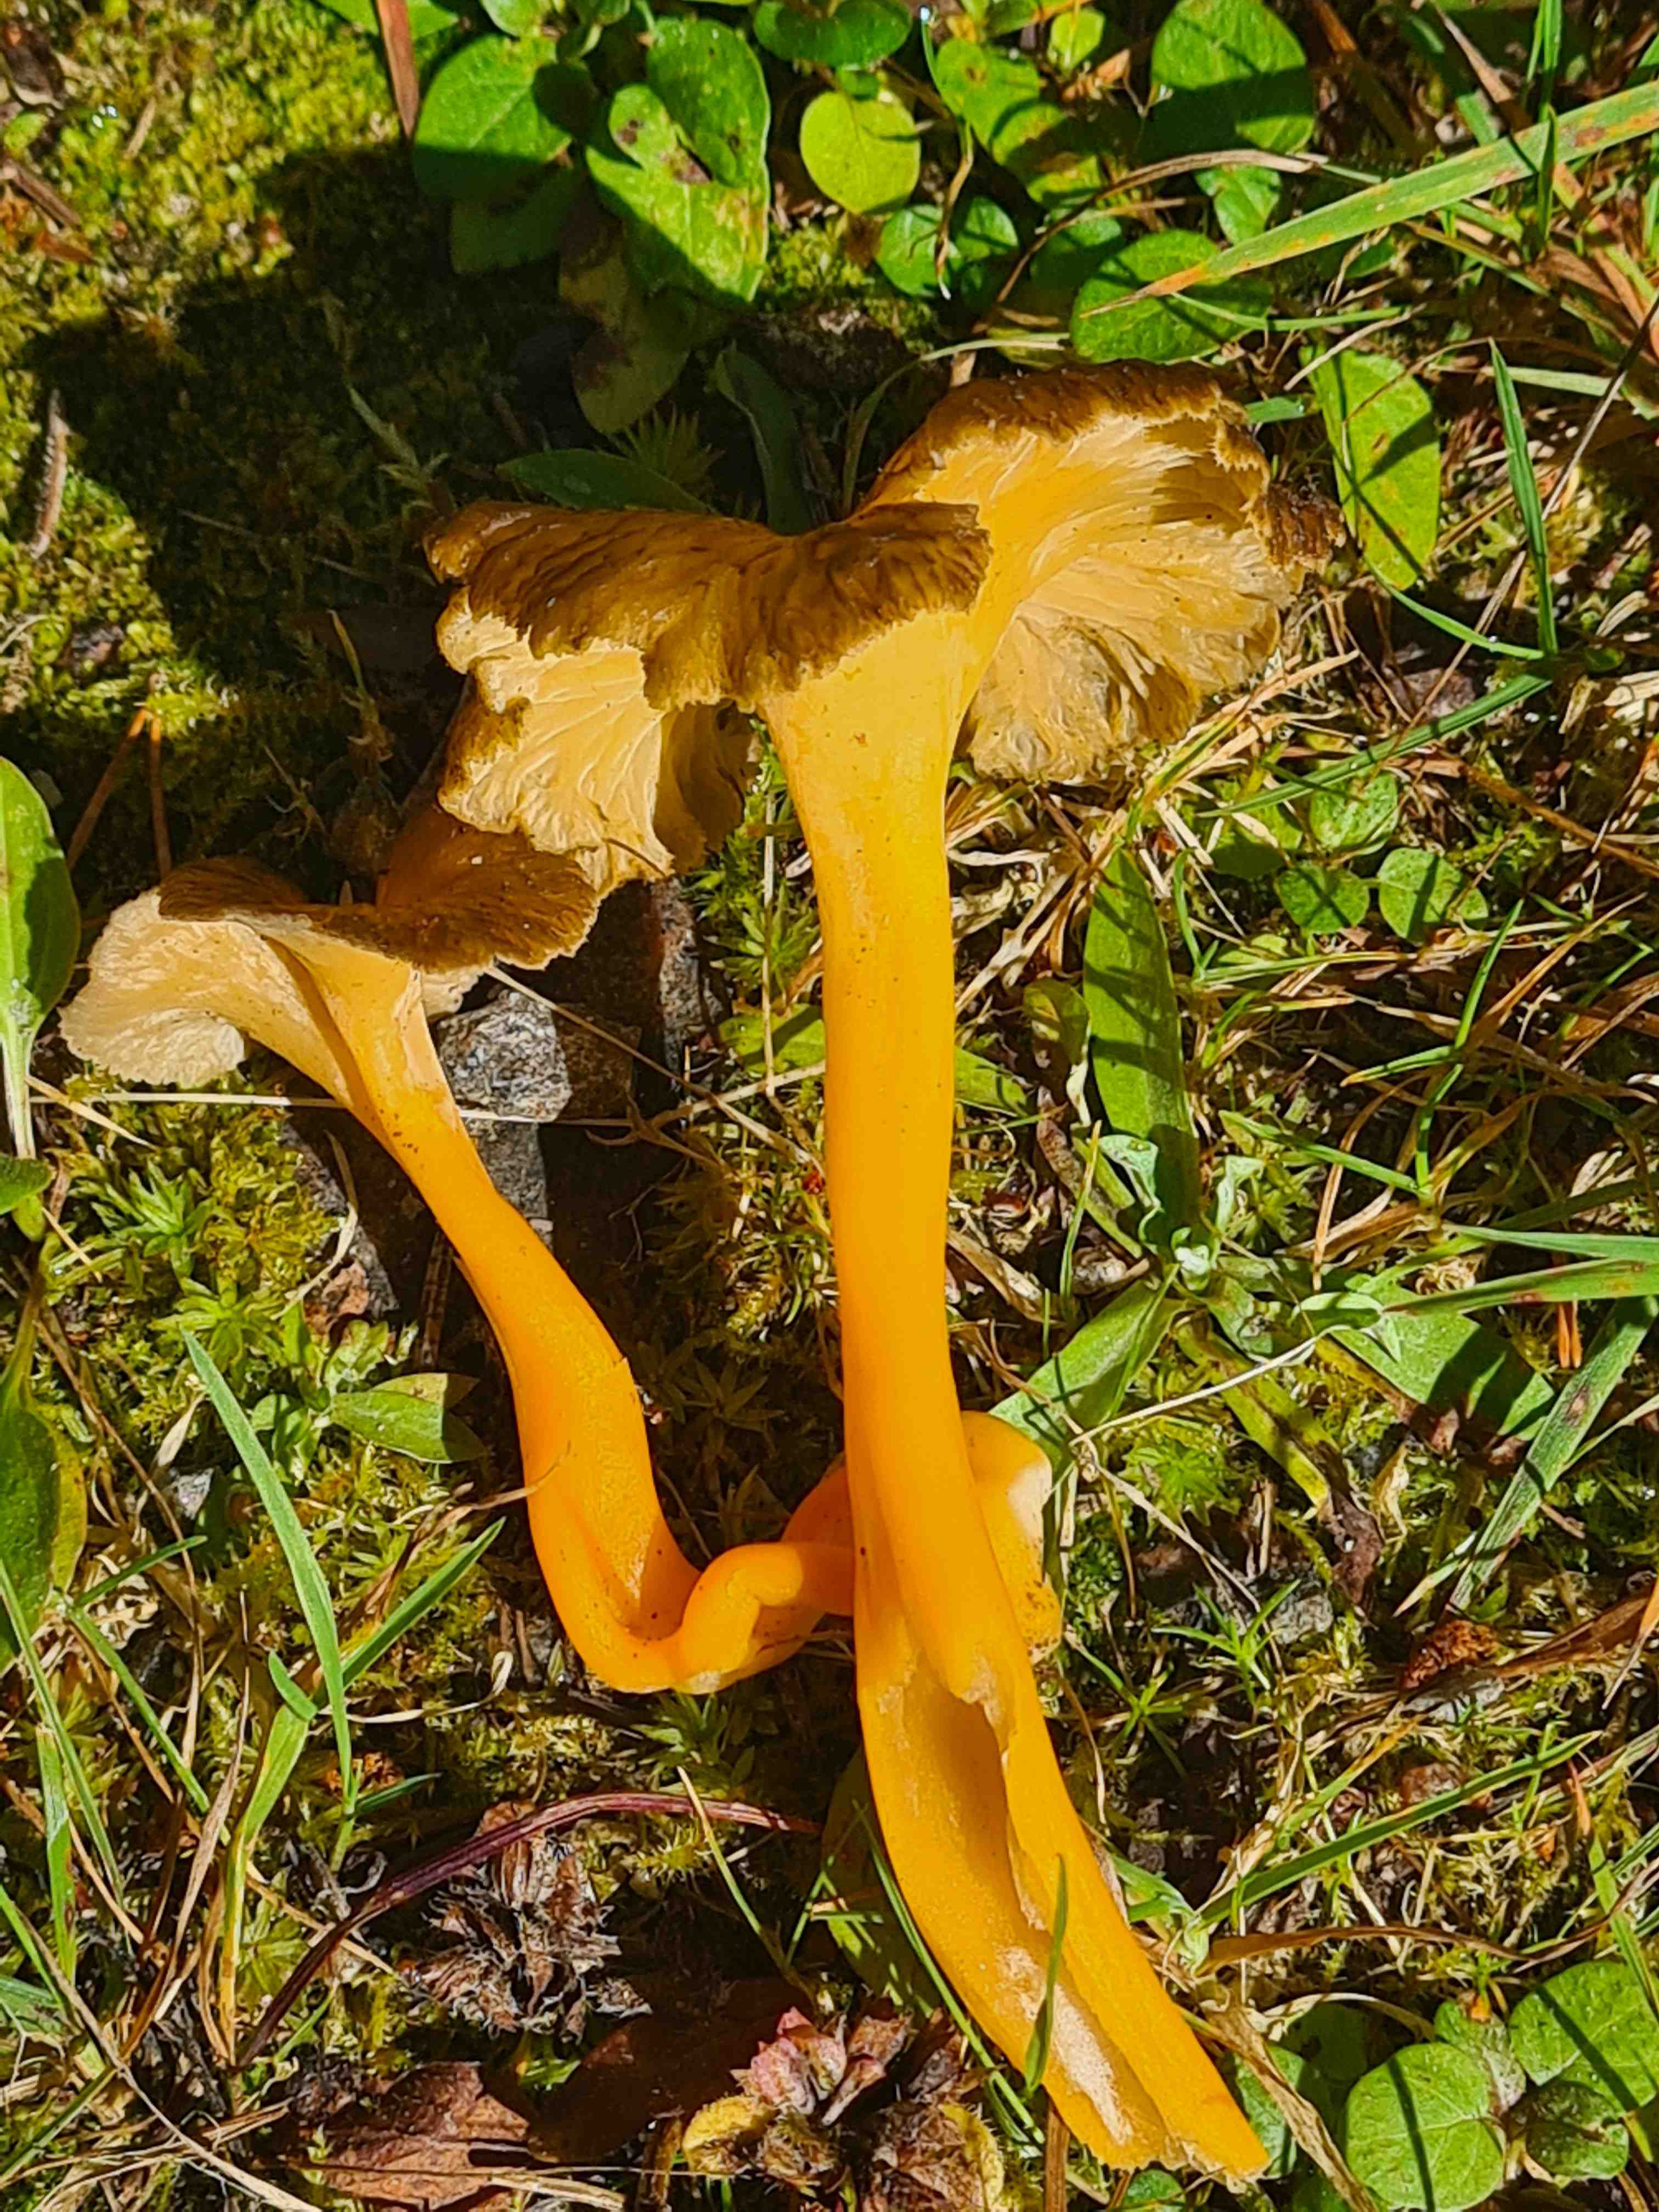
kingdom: Fungi
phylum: Basidiomycota
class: Agaricomycetes
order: Cantharellales
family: Hydnaceae
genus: Craterellus
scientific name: Craterellus lutescens
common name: gylden kantarel
